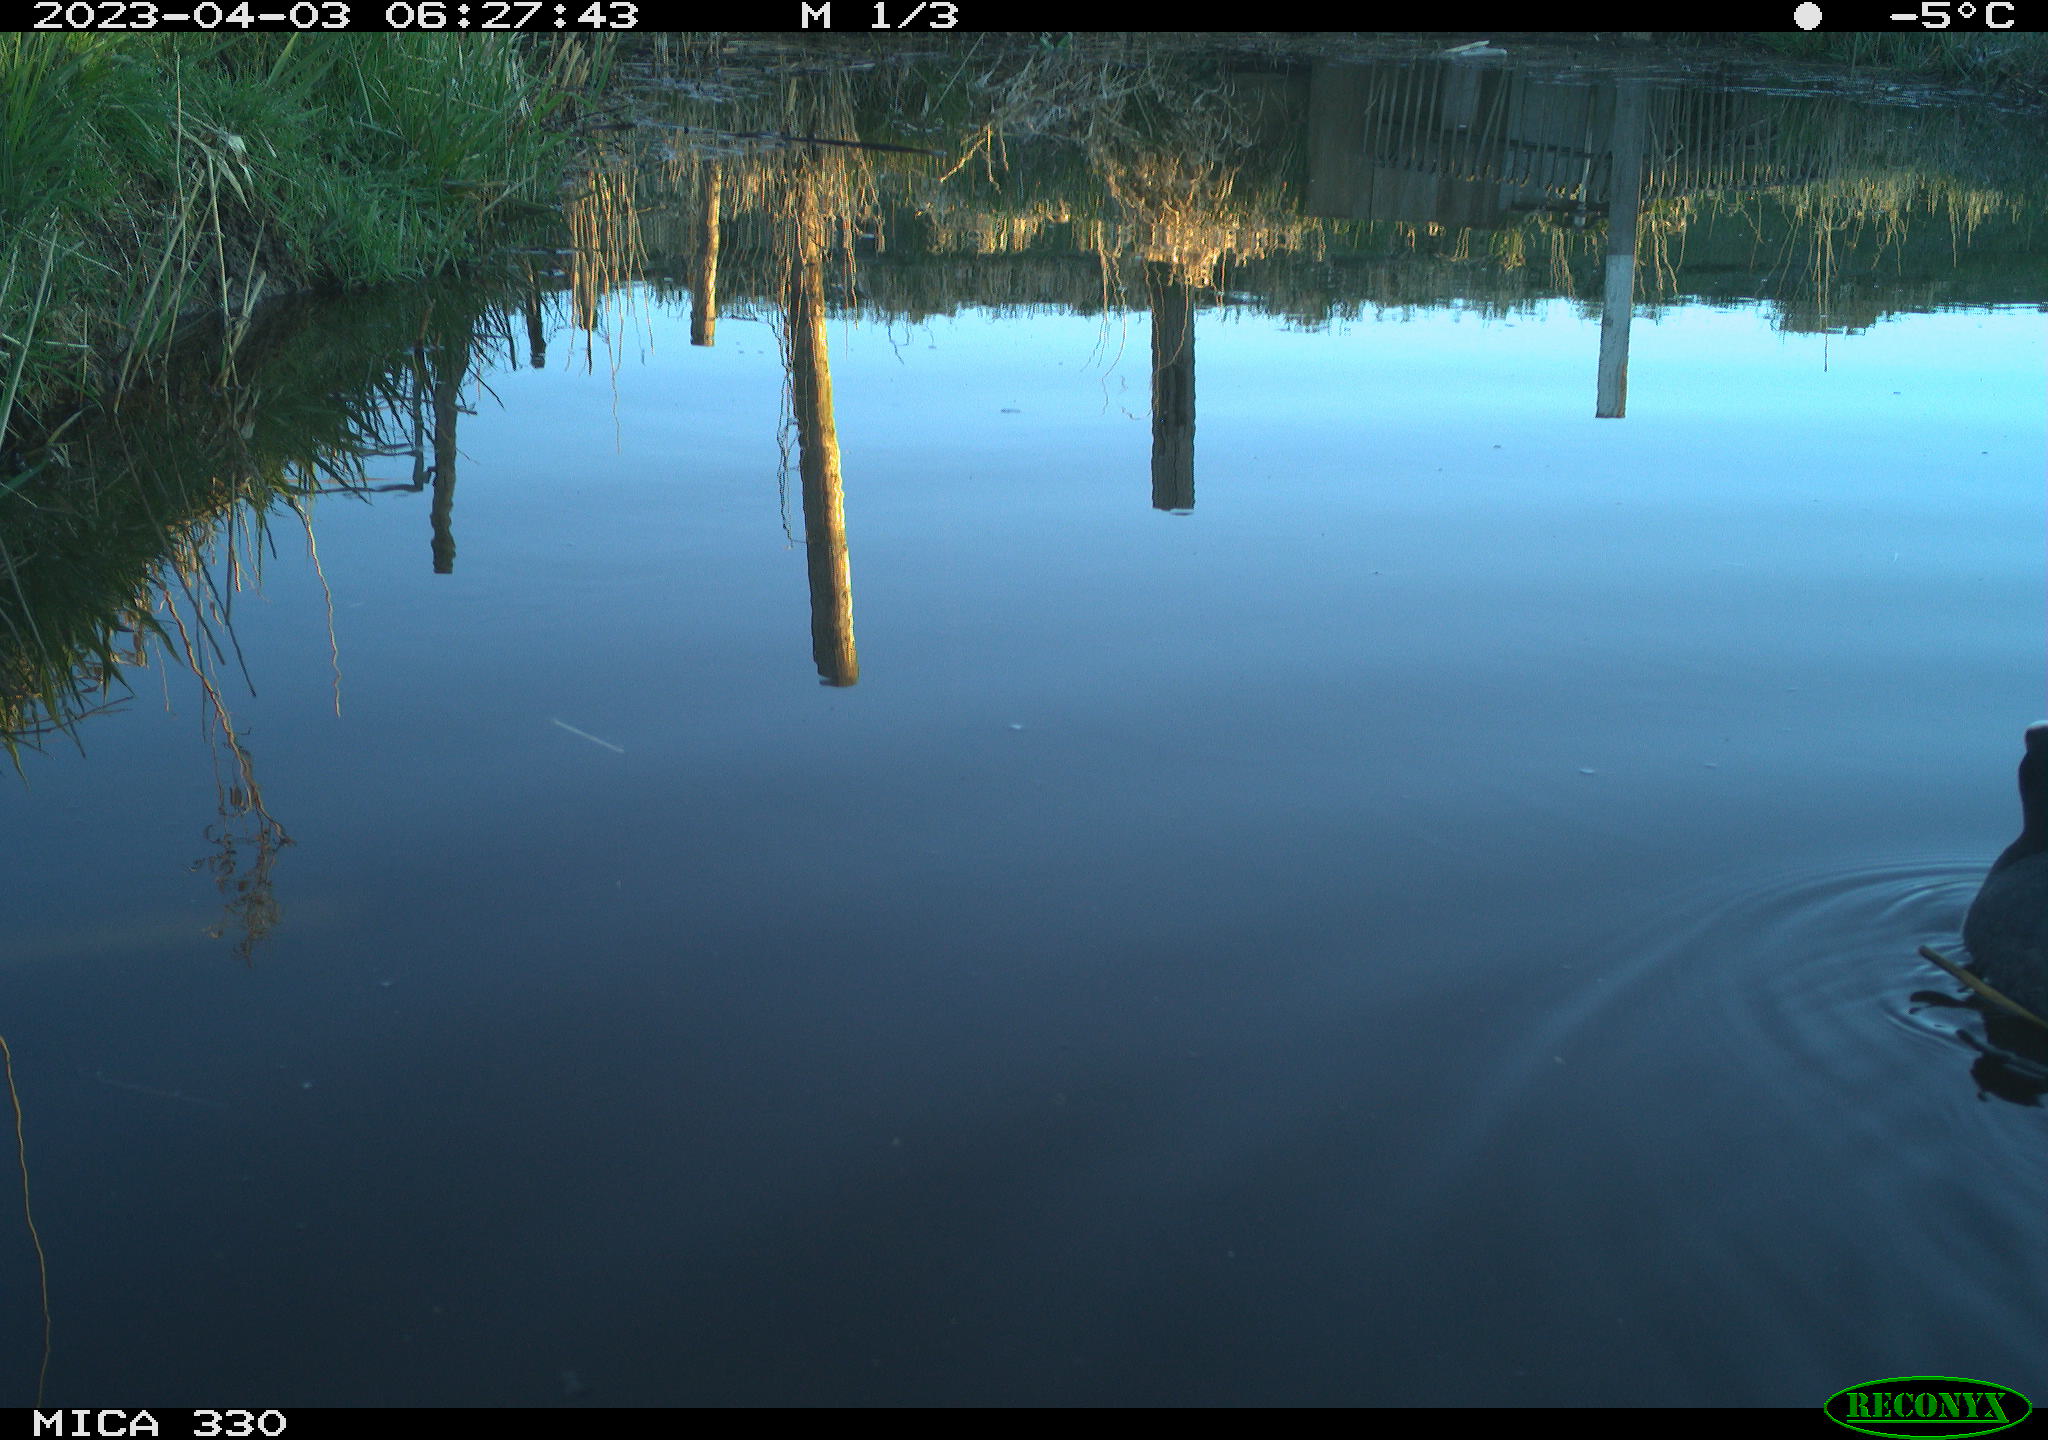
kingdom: Animalia
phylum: Chordata
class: Aves
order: Gruiformes
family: Rallidae
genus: Fulica
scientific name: Fulica atra
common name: Eurasian coot
